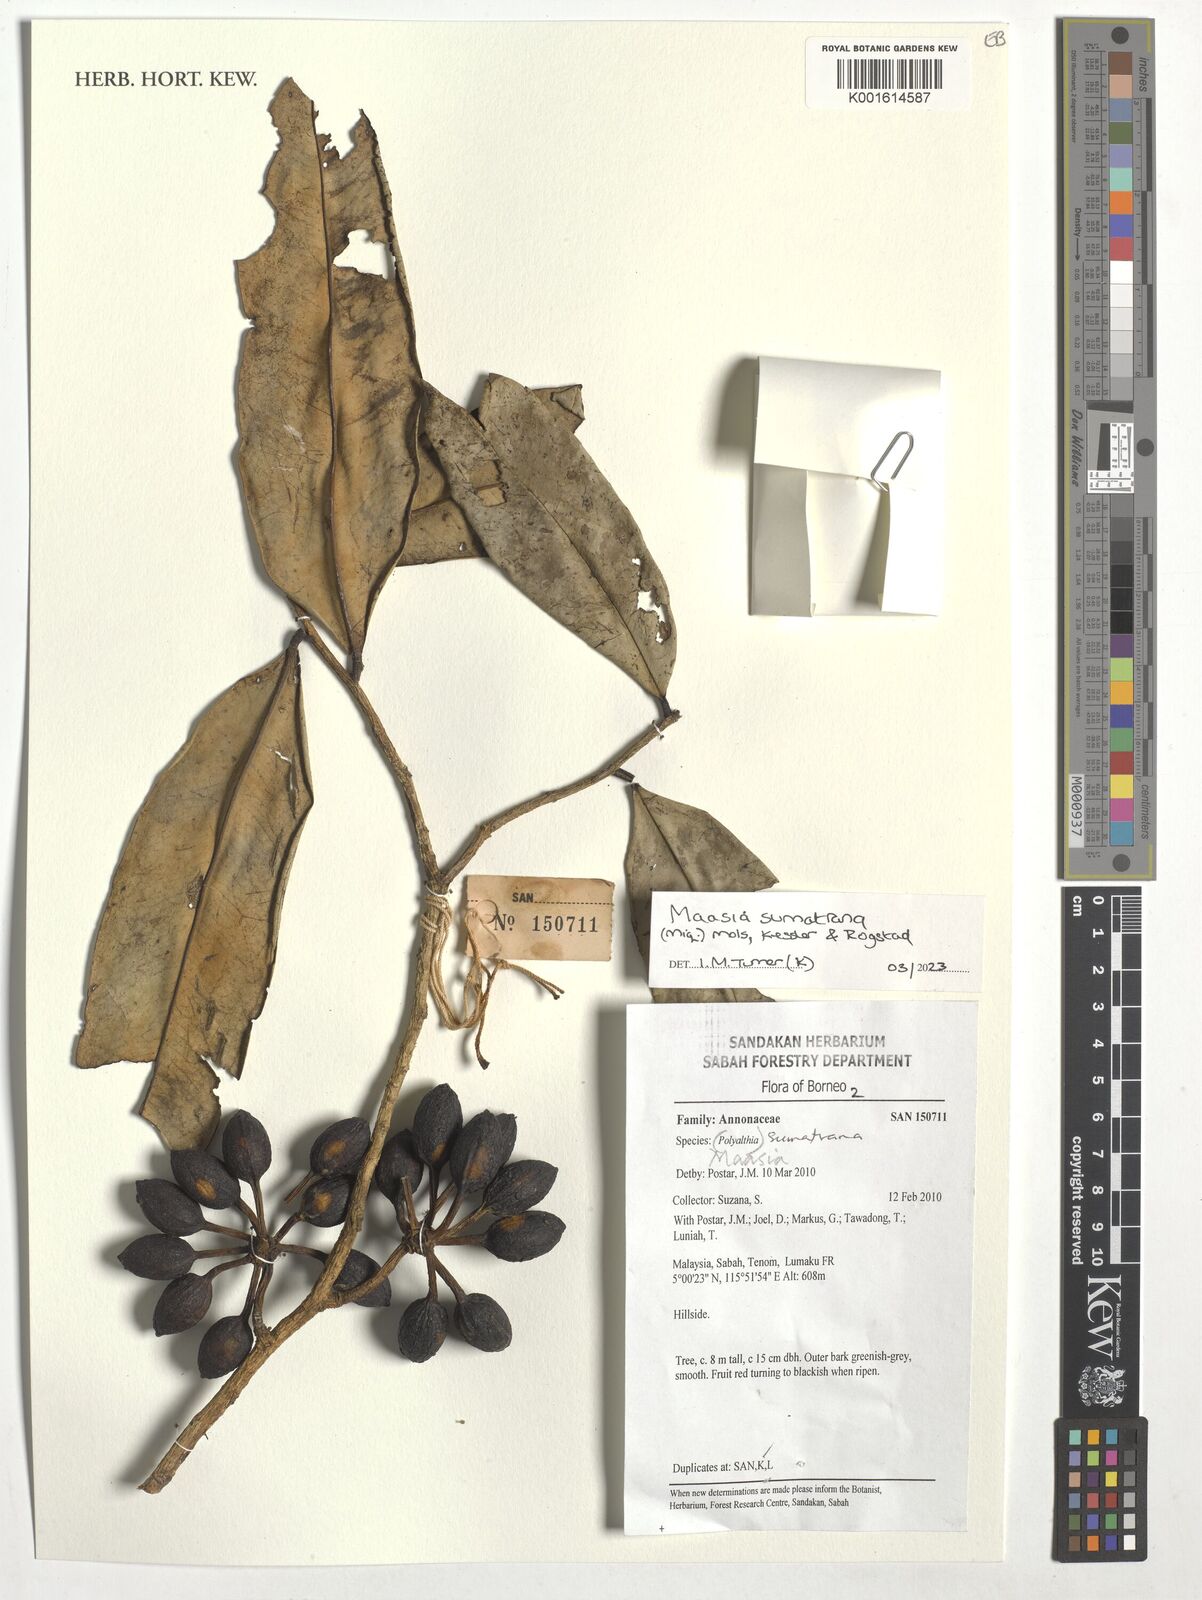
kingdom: Plantae
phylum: Tracheophyta
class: Magnoliopsida
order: Magnoliales
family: Annonaceae
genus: Maasia
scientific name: Maasia sumatrana
